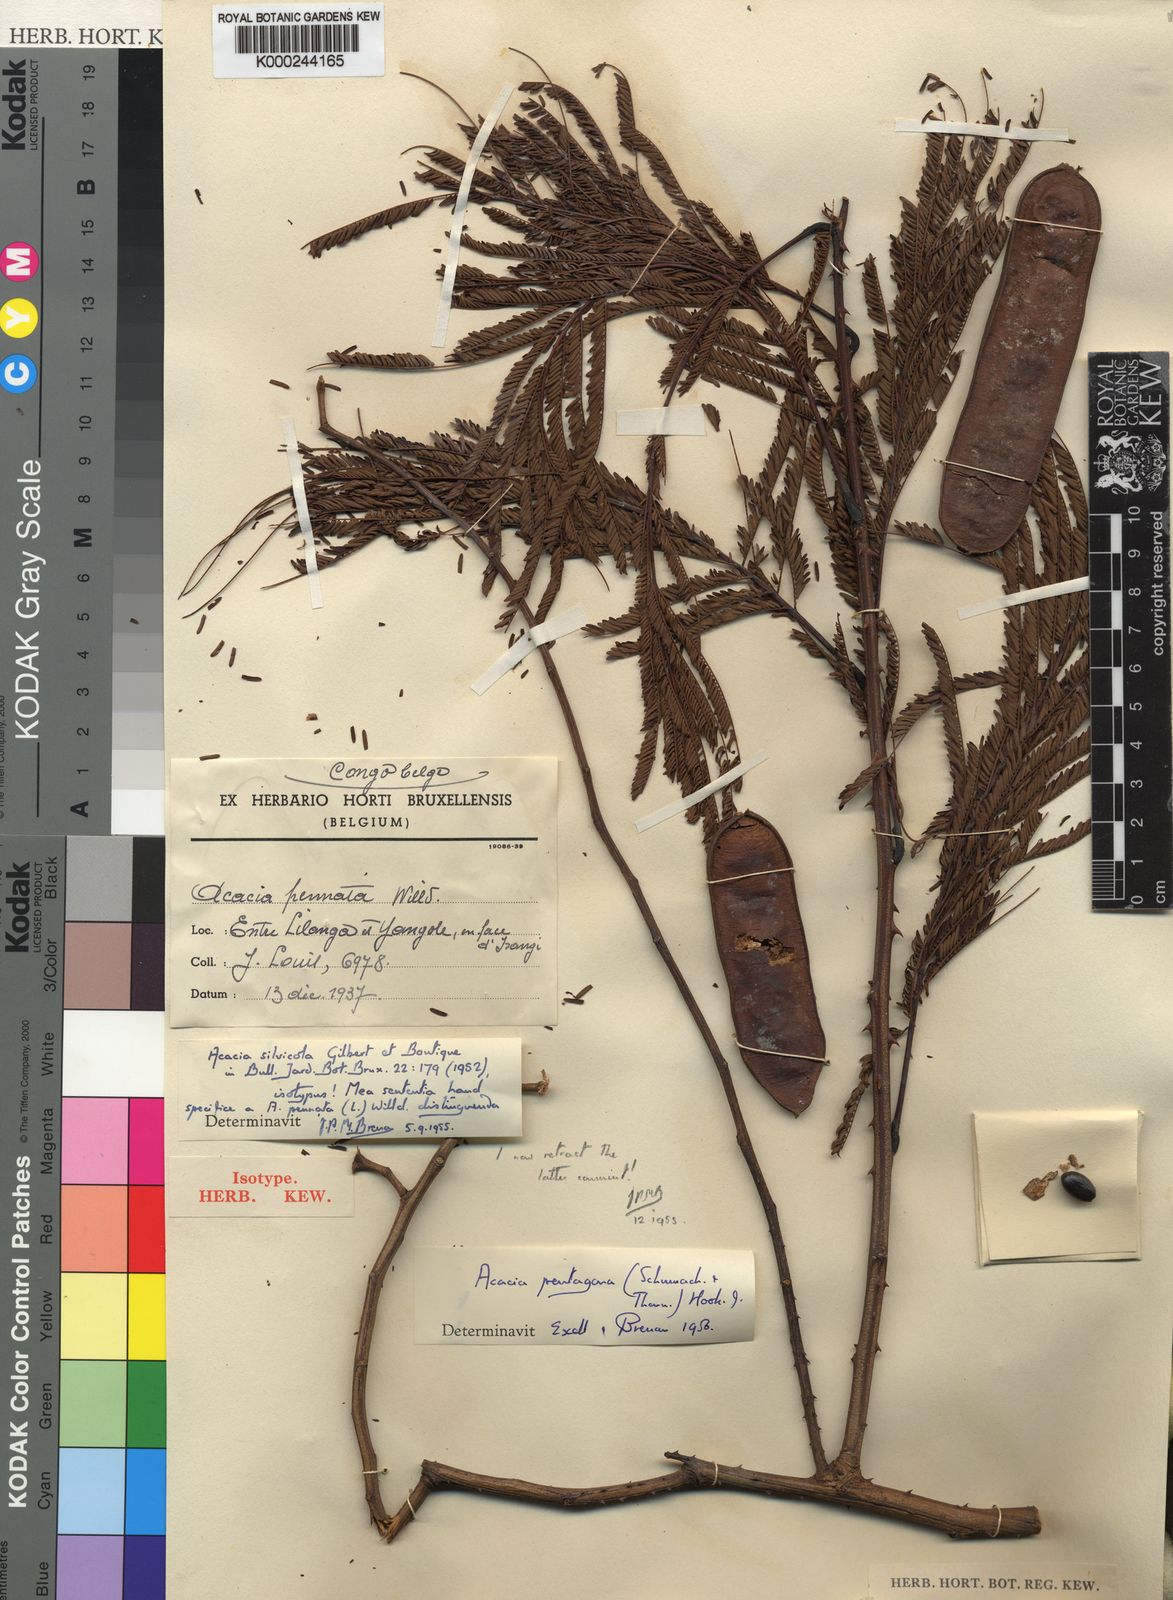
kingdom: Plantae
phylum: Tracheophyta
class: Magnoliopsida
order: Fabales
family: Fabaceae
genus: Senegalia
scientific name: Senegalia pentagona
